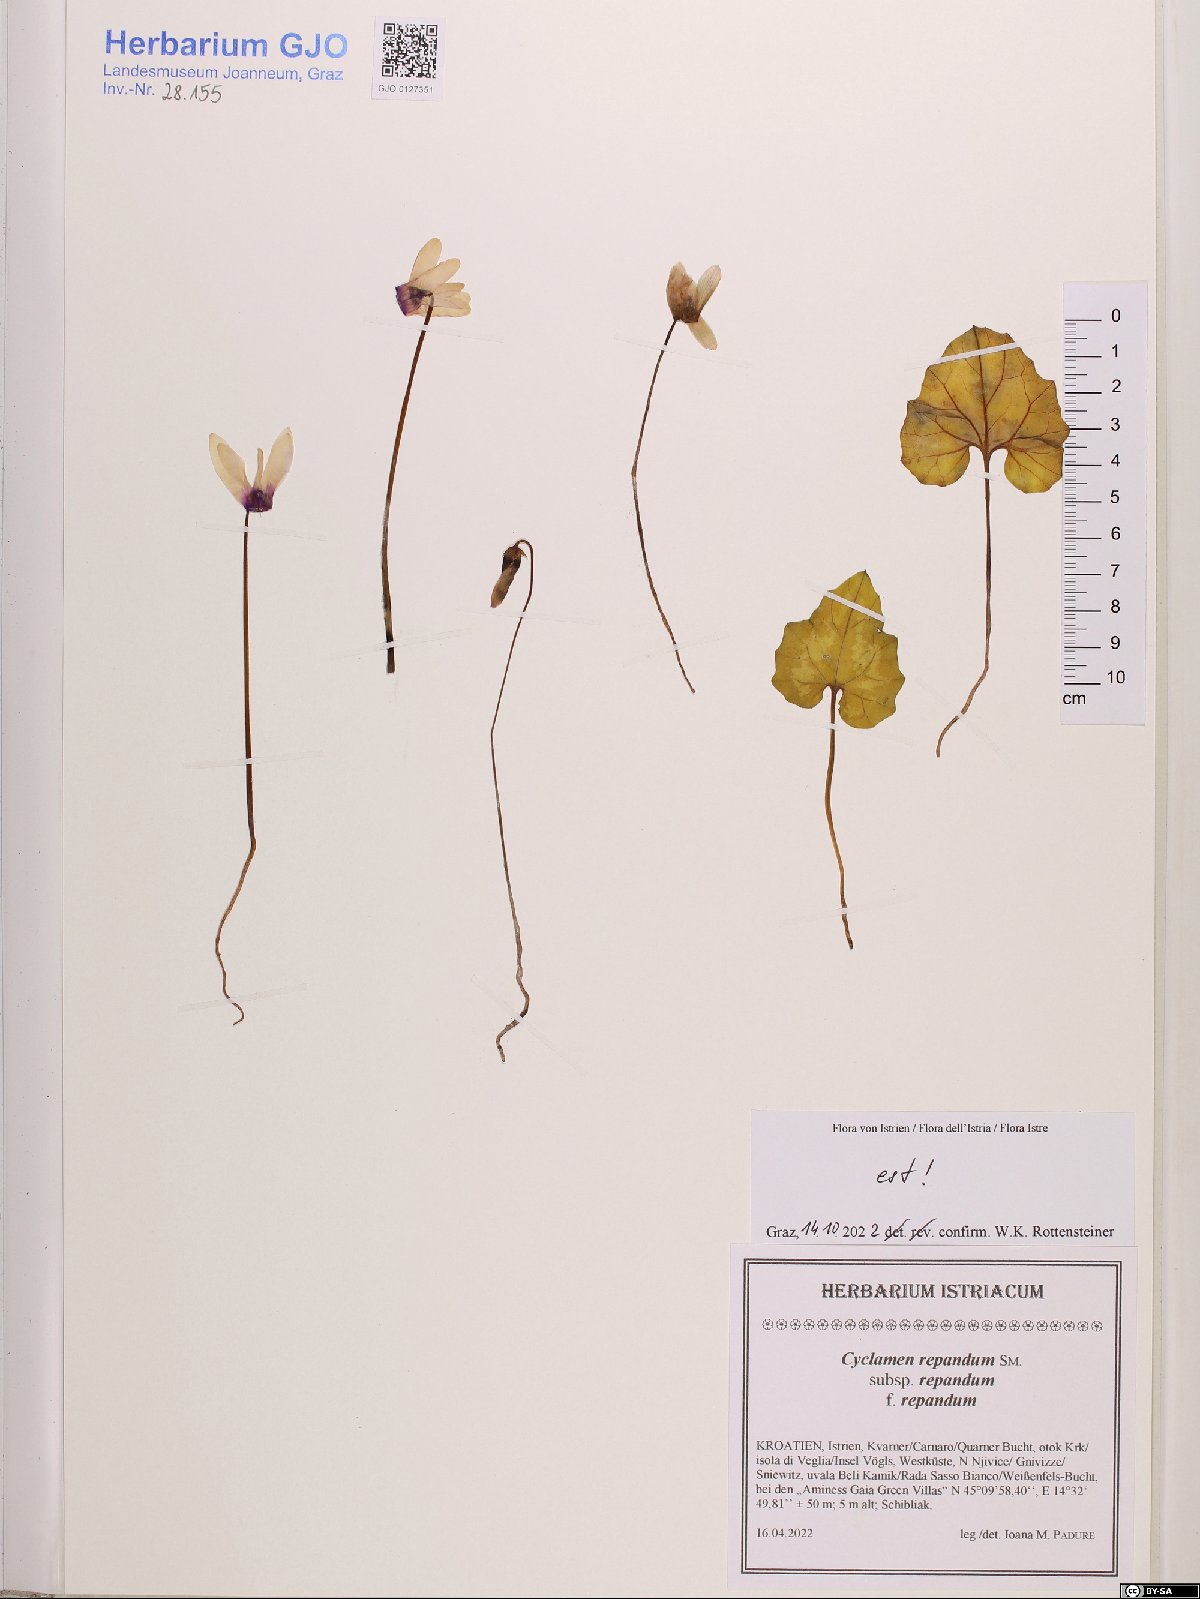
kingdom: Plantae
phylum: Tracheophyta
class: Magnoliopsida
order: Ericales
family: Primulaceae
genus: Cyclamen
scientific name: Cyclamen repandum
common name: Spring sowbread
